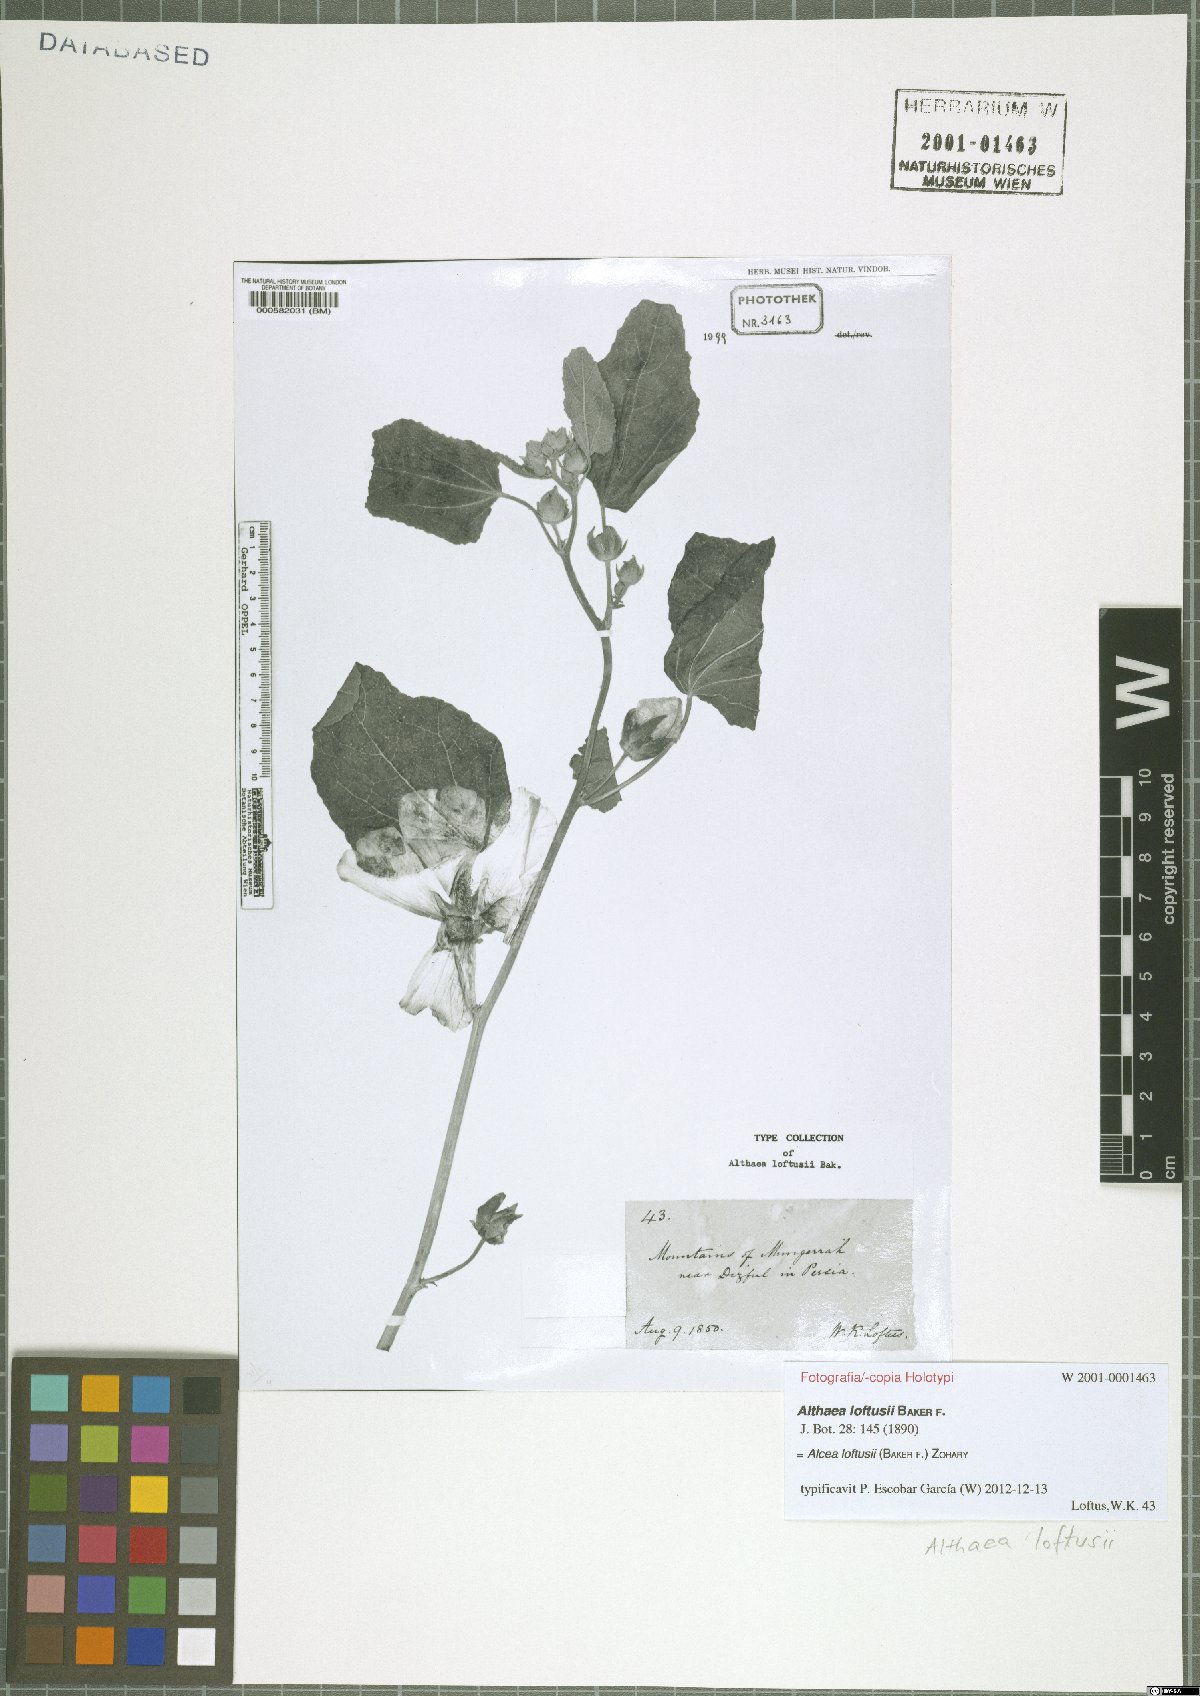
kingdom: Plantae
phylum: Tracheophyta
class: Magnoliopsida
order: Malvales
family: Malvaceae
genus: Alcea
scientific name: Alcea loftusii
